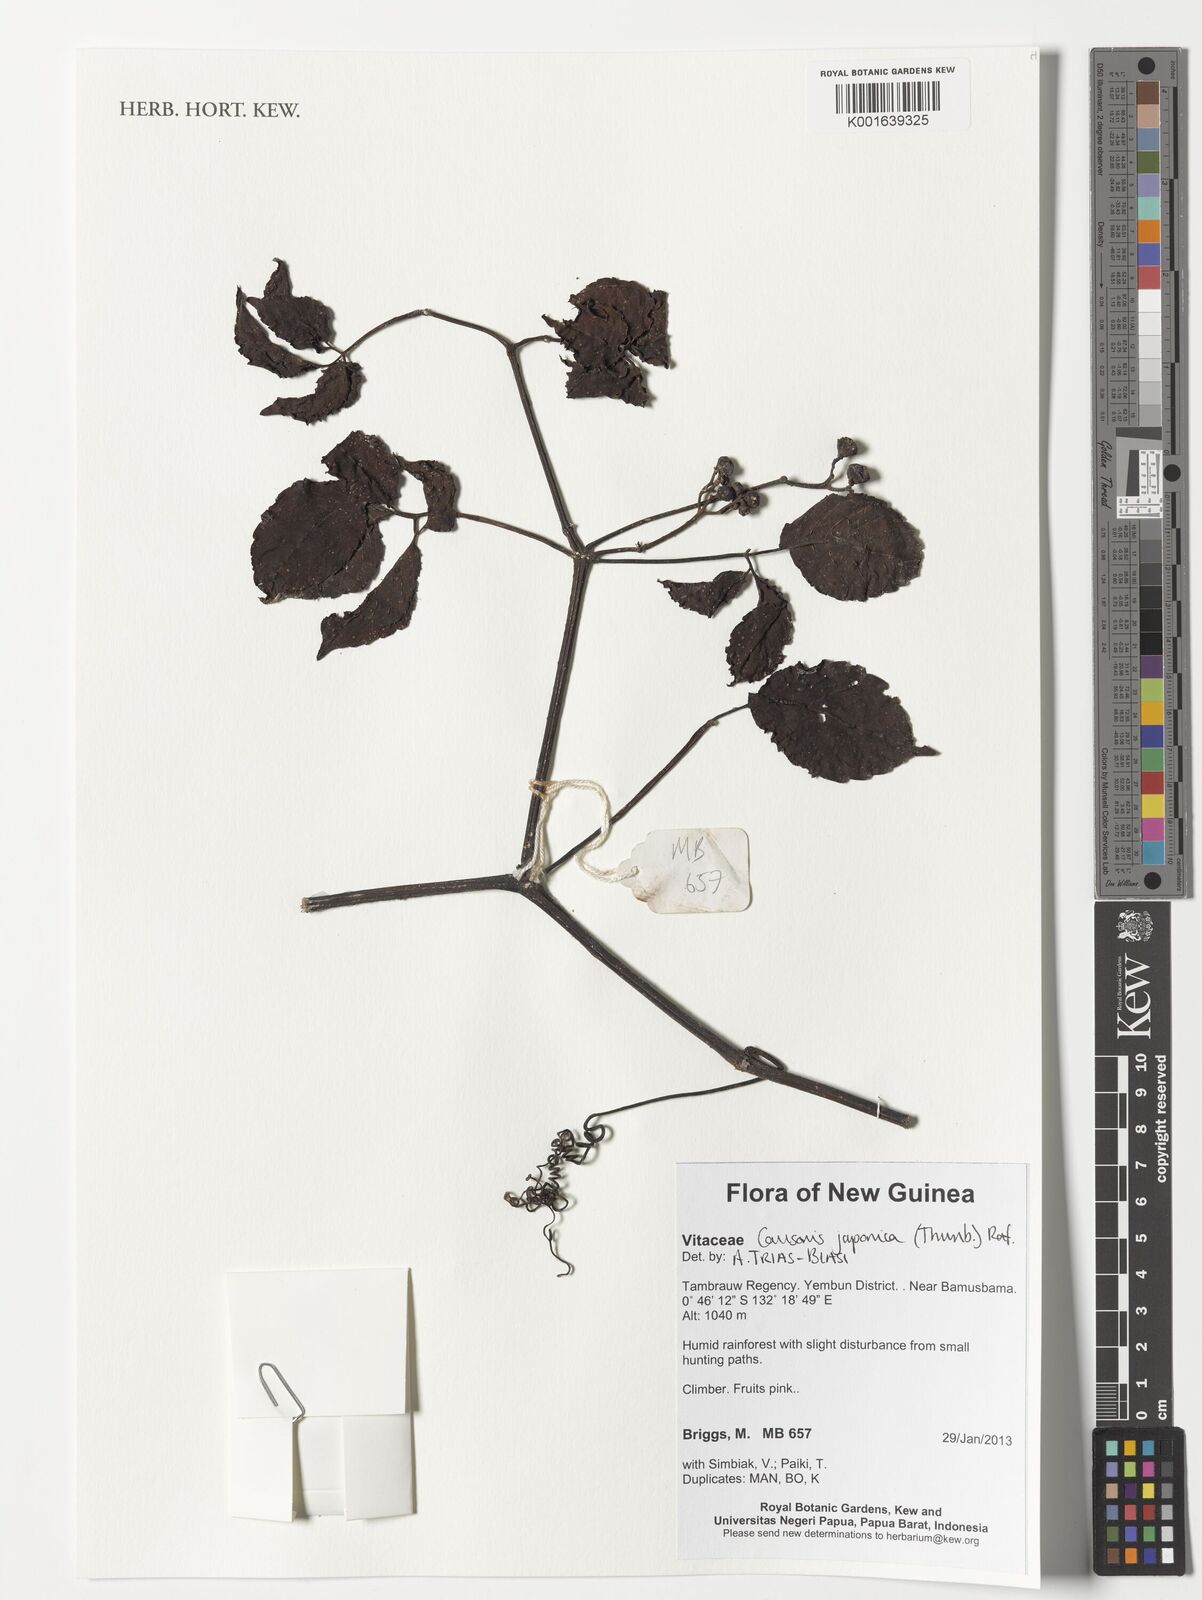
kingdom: Plantae
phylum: Tracheophyta
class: Magnoliopsida
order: Vitales
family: Vitaceae
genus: Causonis
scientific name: Causonis japonica
